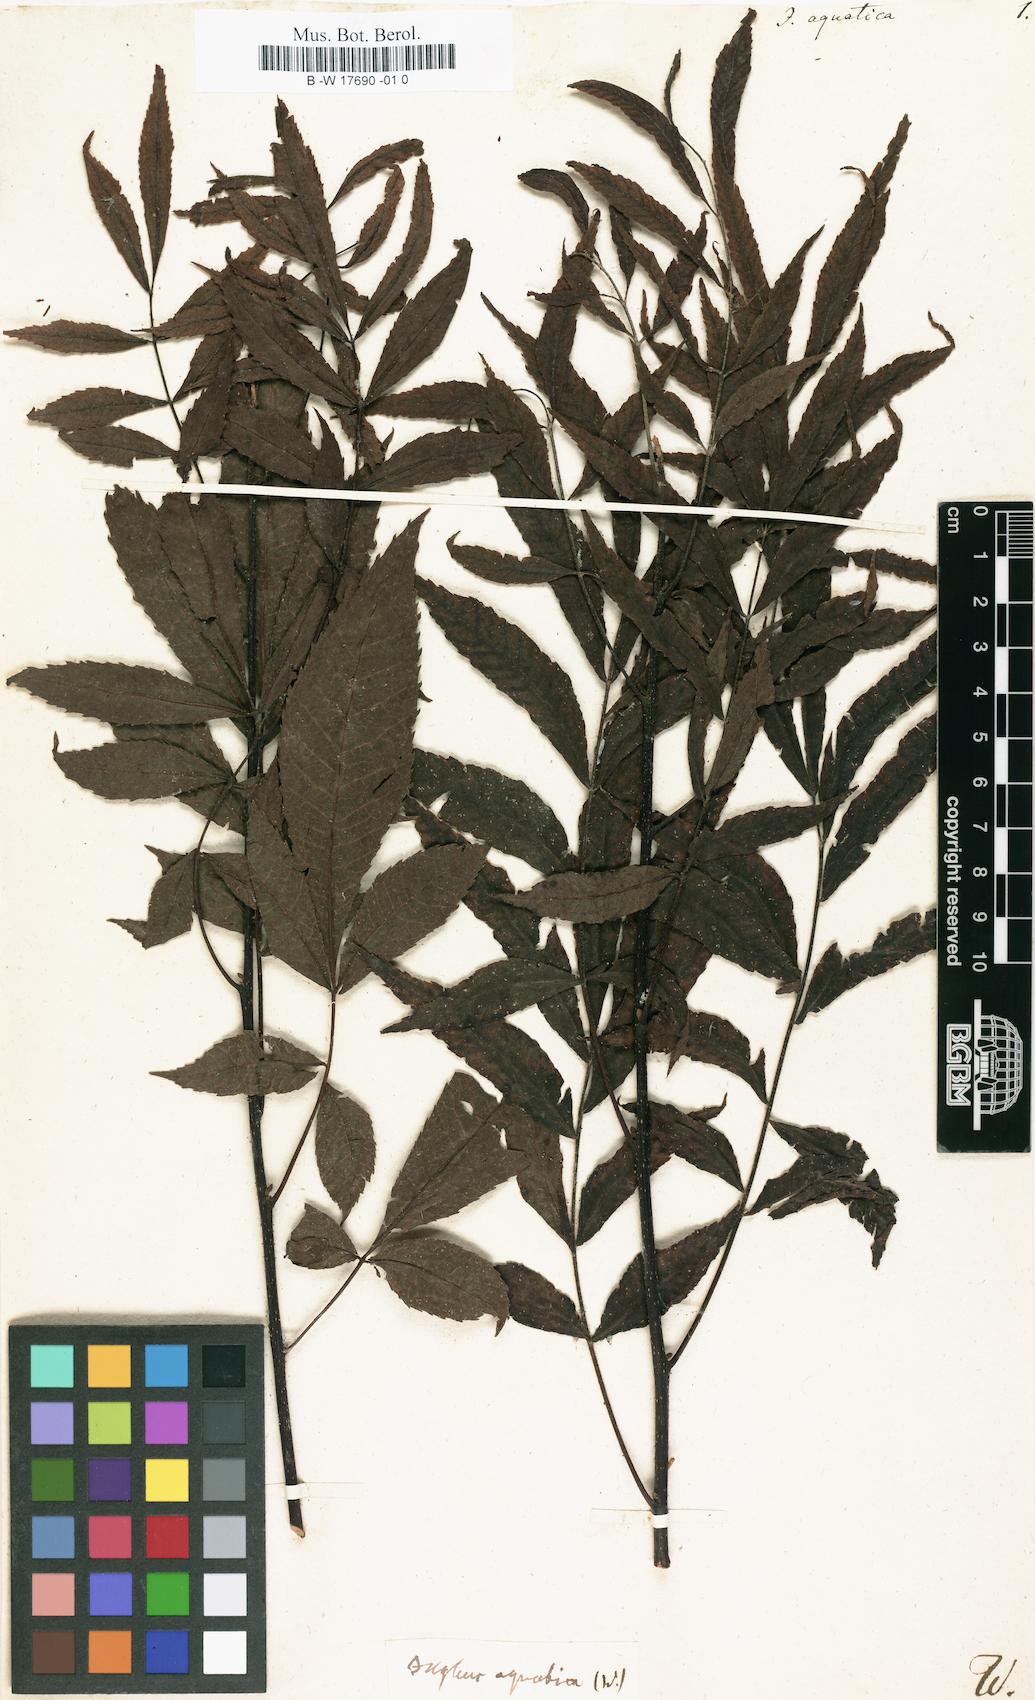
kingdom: Plantae
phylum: Tracheophyta
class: Magnoliopsida
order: Fagales
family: Juglandaceae
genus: Carya
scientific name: Carya aquatica
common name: Water hickory
